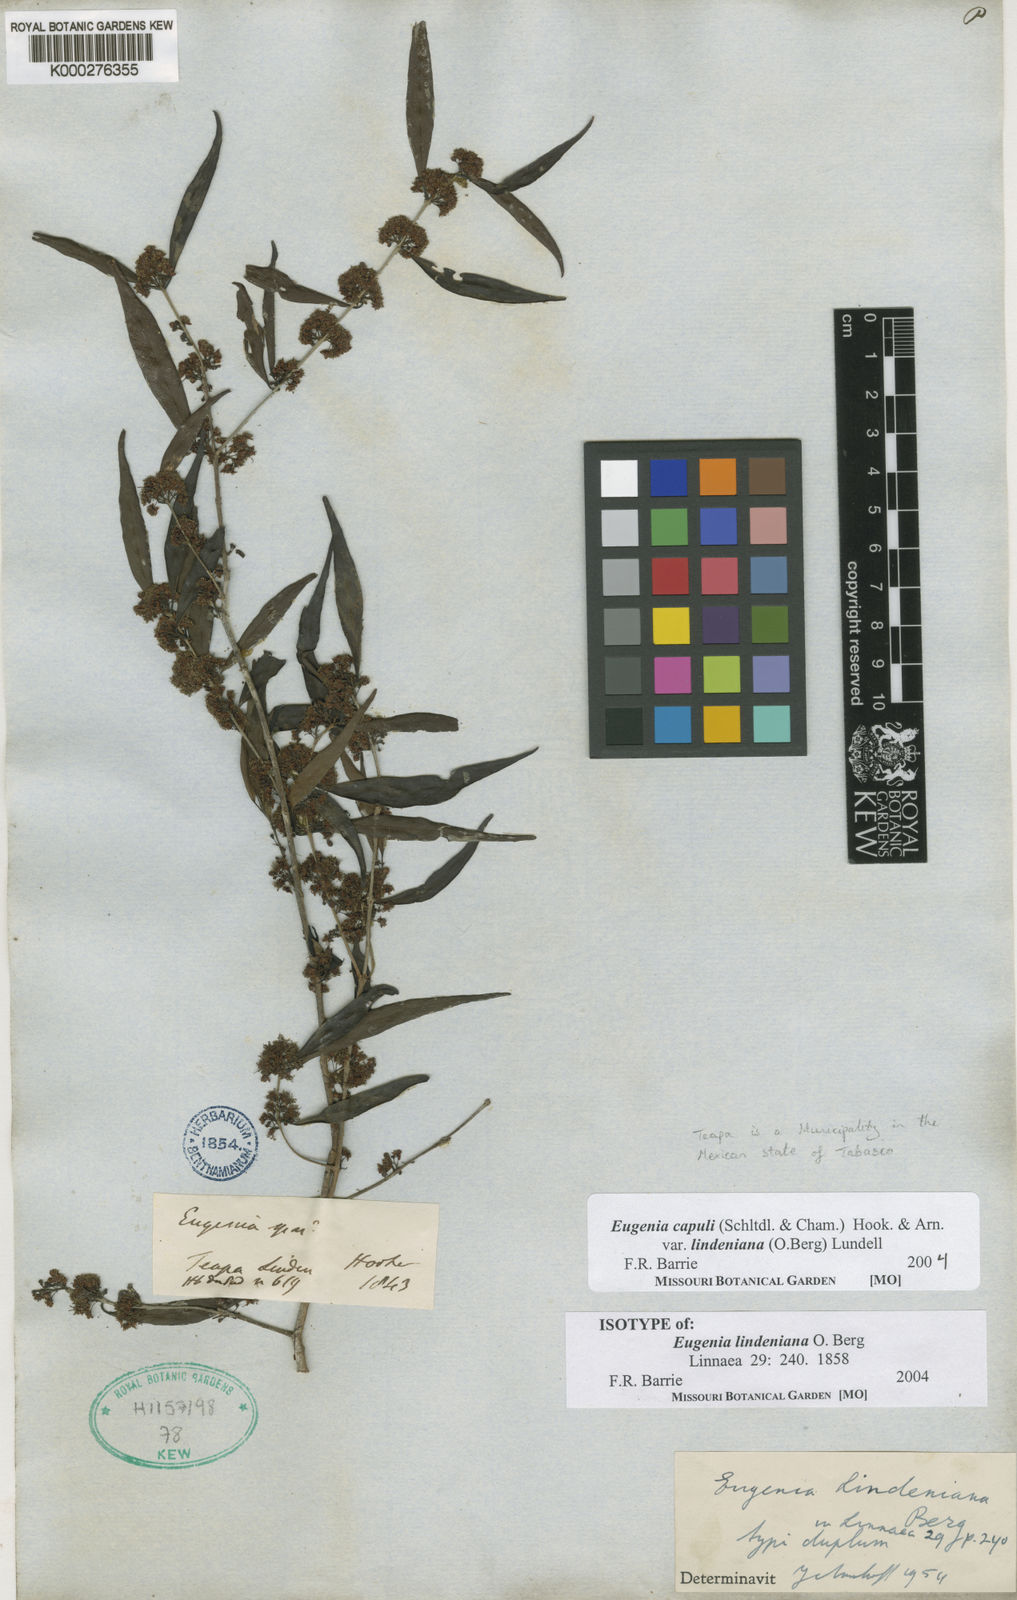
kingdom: Plantae
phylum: Tracheophyta
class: Magnoliopsida
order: Myrtales
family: Myrtaceae
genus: Eugenia
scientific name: Eugenia capuli
